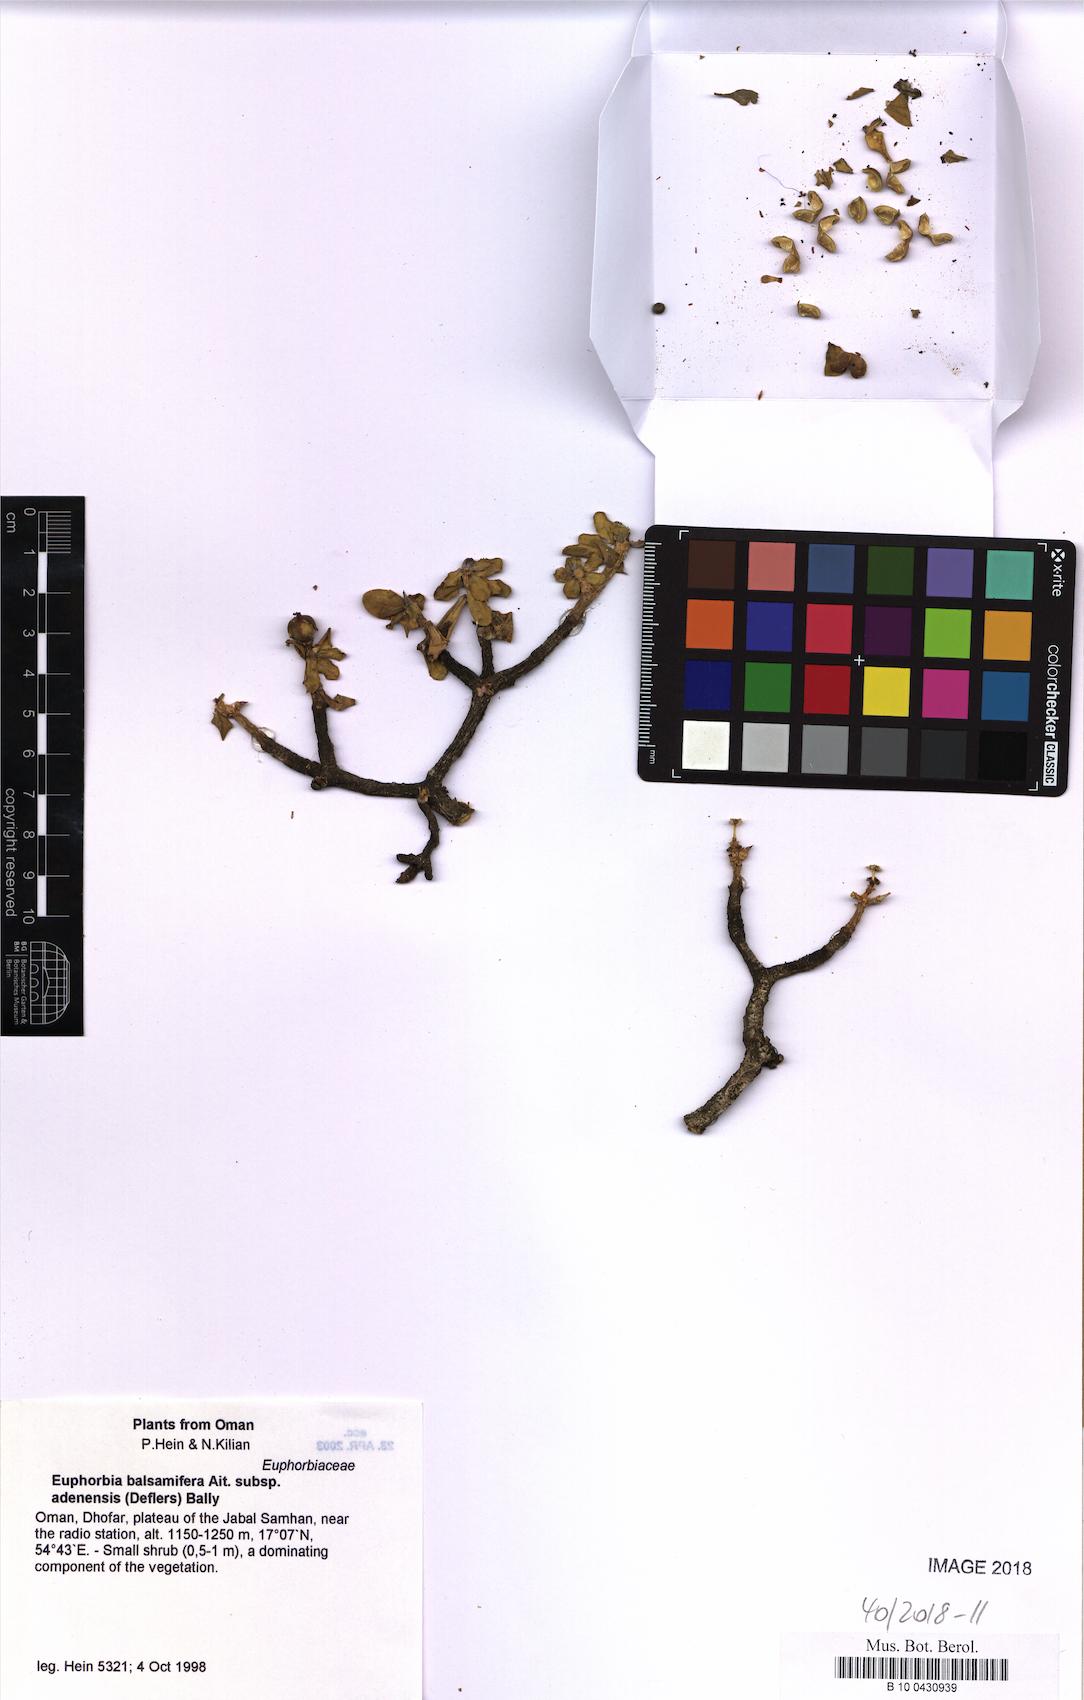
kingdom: Plantae
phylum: Tracheophyta
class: Magnoliopsida
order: Malpighiales
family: Euphorbiaceae
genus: Euphorbia
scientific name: Euphorbia adenensis
